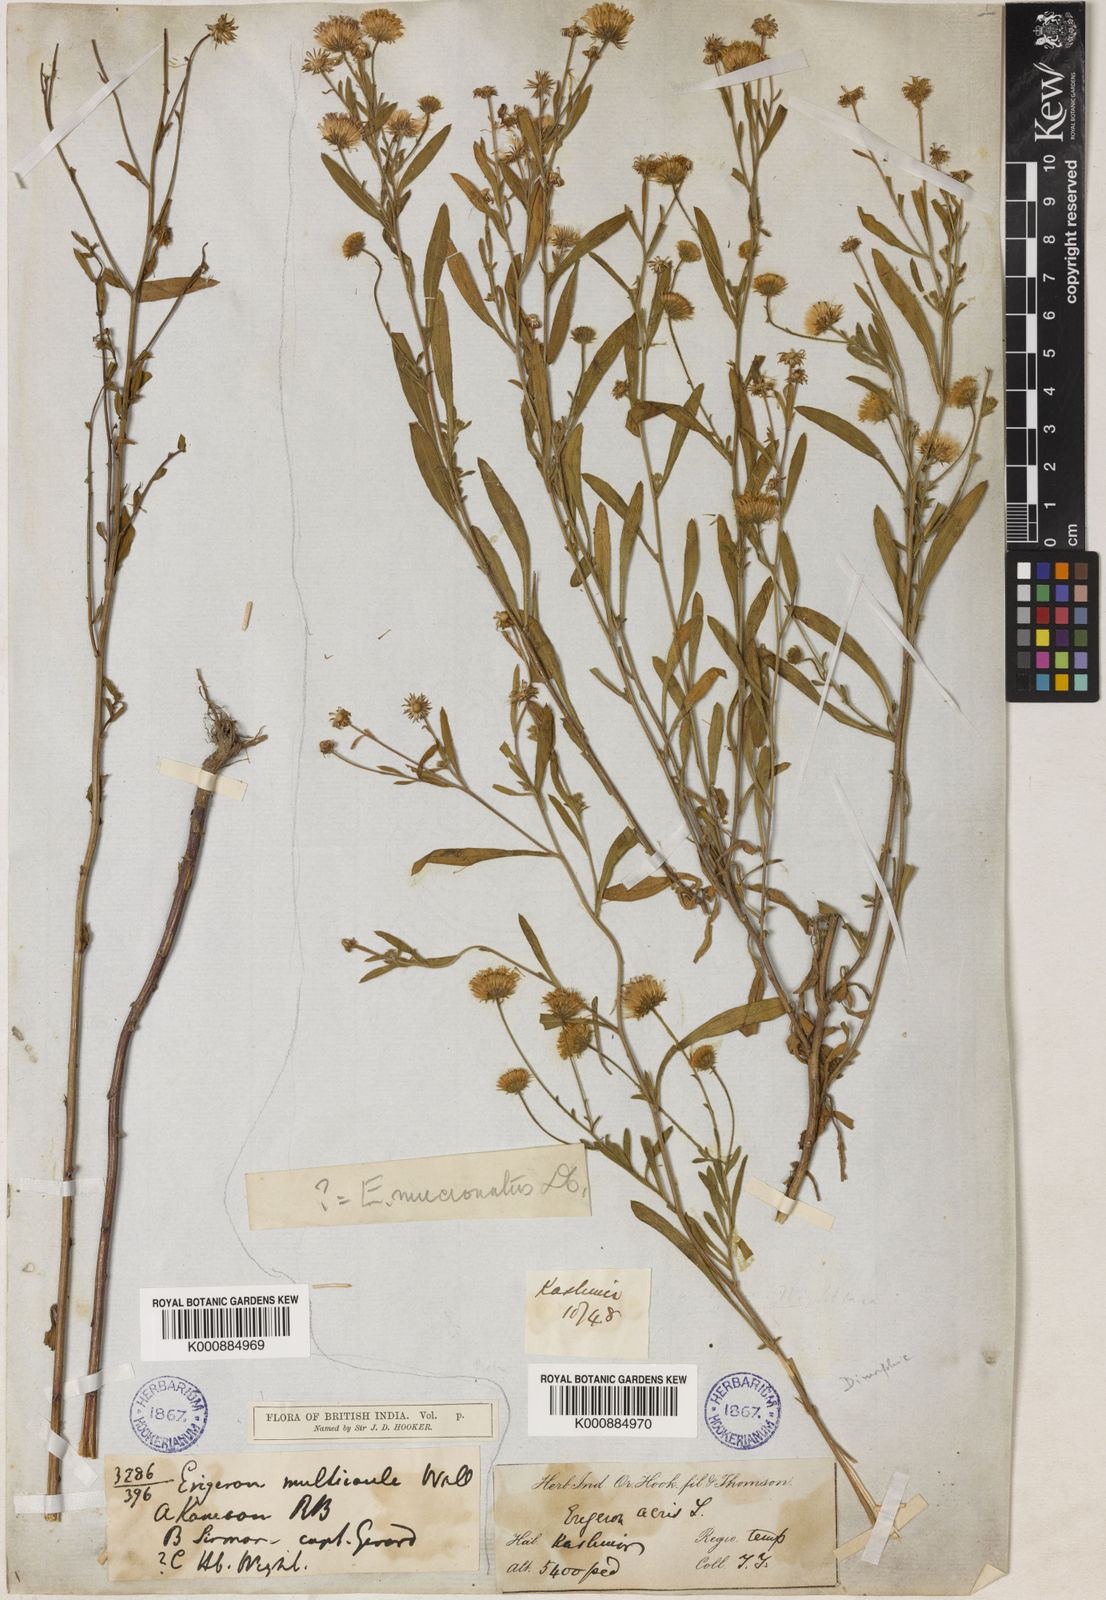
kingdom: Plantae
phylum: Tracheophyta
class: Magnoliopsida
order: Asterales
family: Asteraceae
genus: Erigeron
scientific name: Erigeron alpinus
